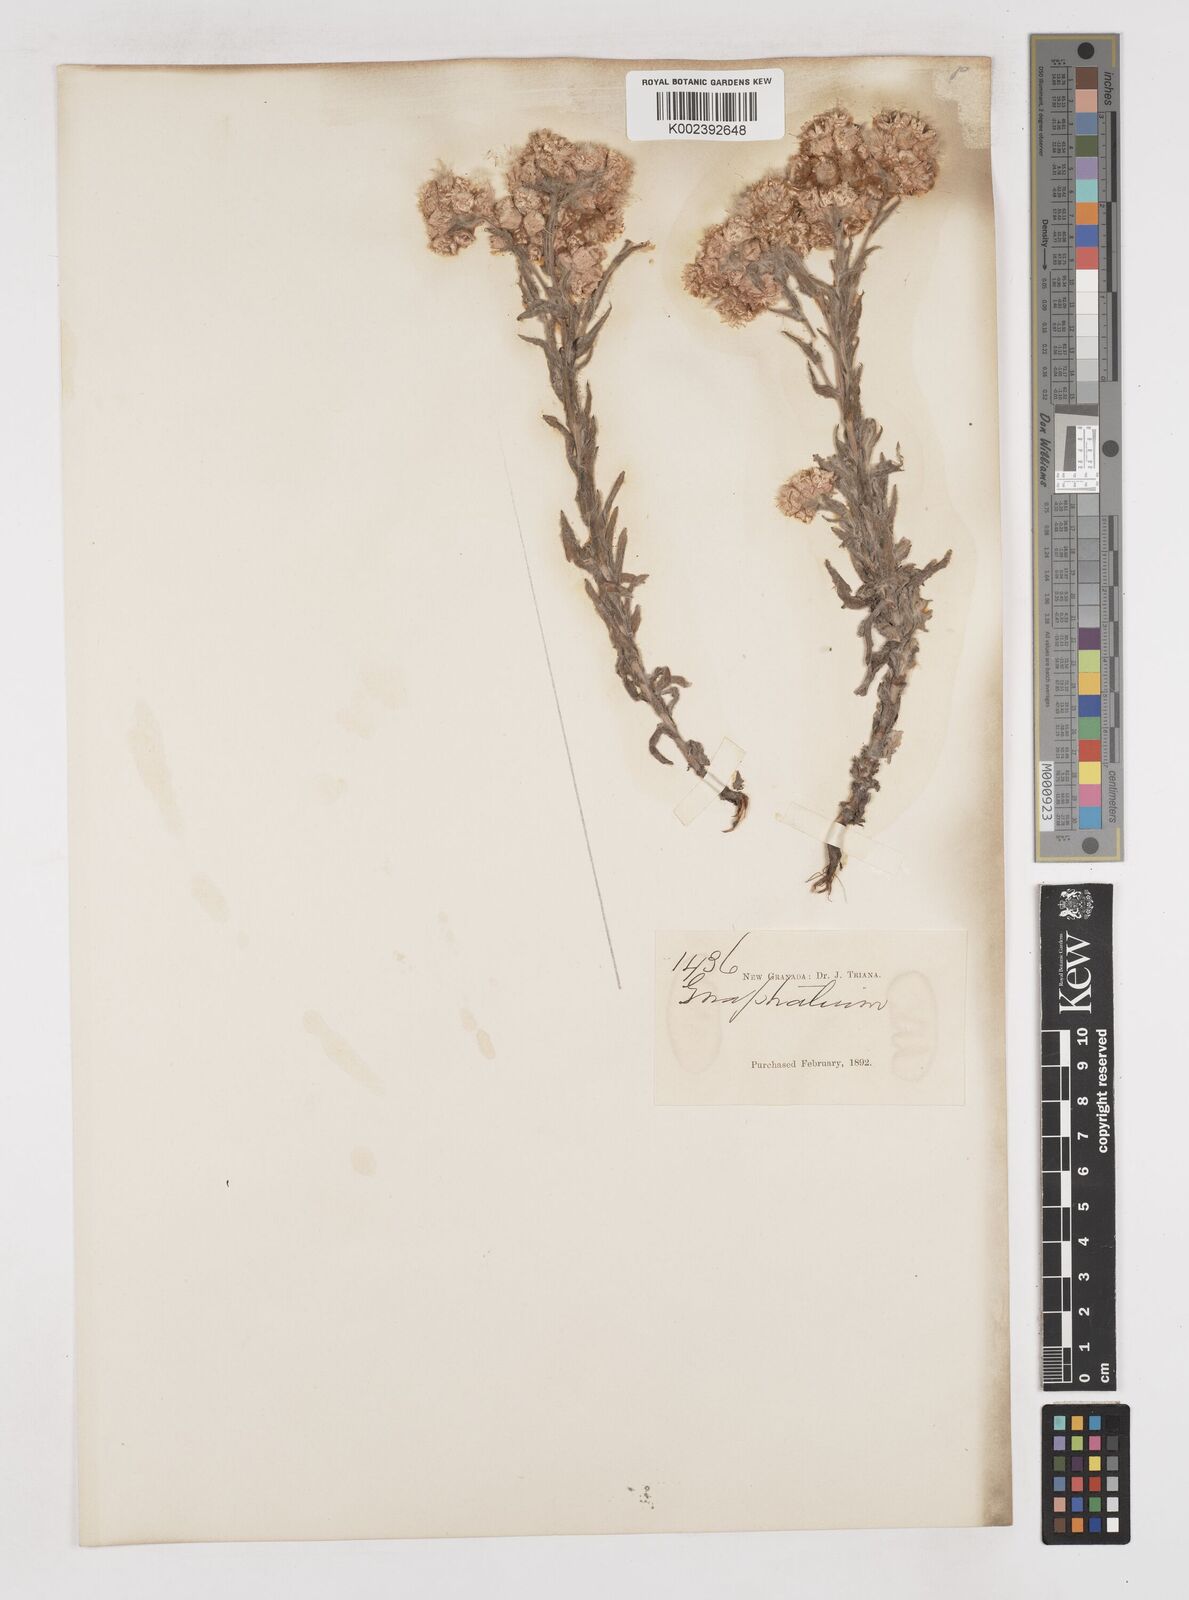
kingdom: Plantae
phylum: Tracheophyta
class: Magnoliopsida
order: Asterales
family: Asteraceae
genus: Gnaphalium
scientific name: Gnaphalium
